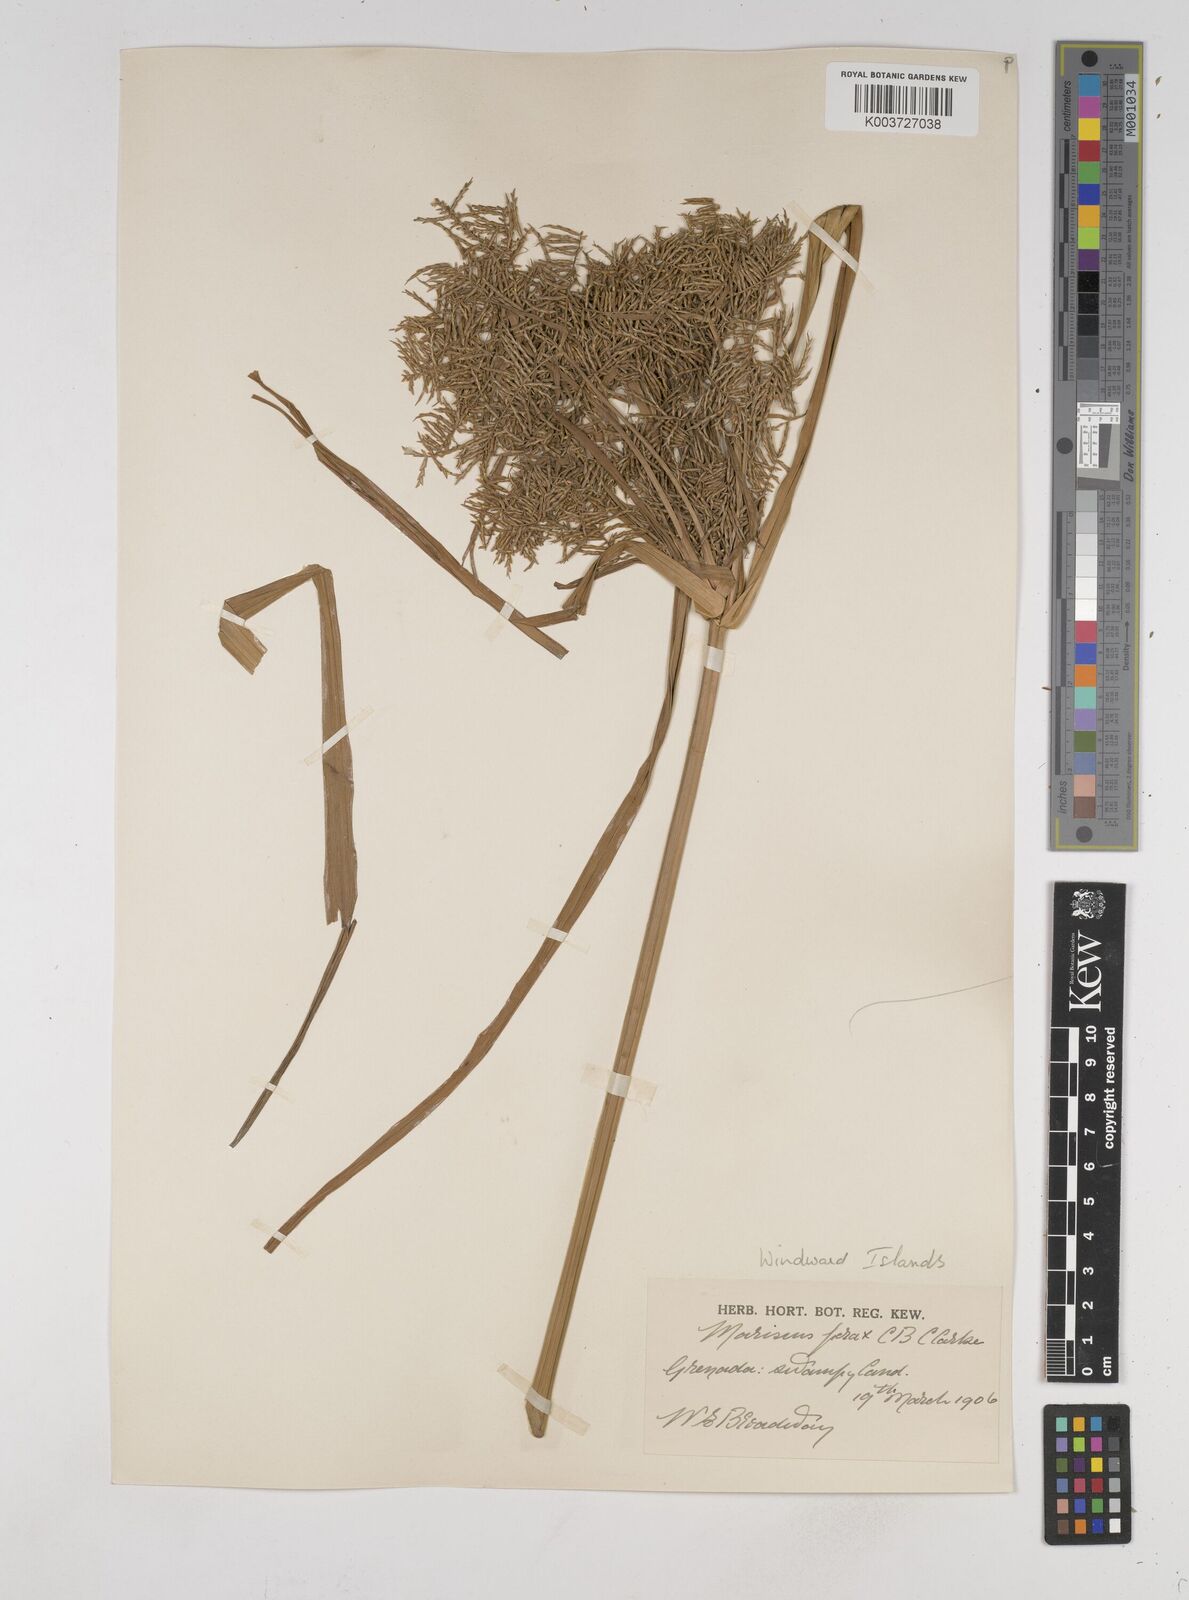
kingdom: Plantae
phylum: Tracheophyta
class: Liliopsida
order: Poales
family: Cyperaceae
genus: Cyperus
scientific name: Cyperus odoratus
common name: Fragrant flatsedge
